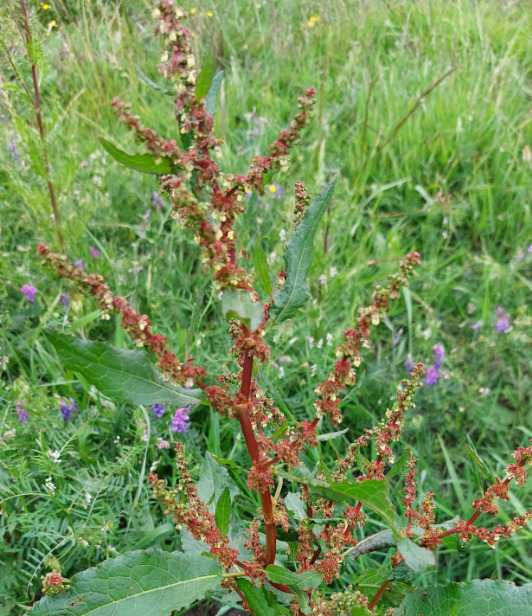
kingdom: Plantae
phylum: Tracheophyta
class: Magnoliopsida
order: Caryophyllales
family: Polygonaceae
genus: Rumex
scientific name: Rumex obtusifolius
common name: Butbladet skræppe
